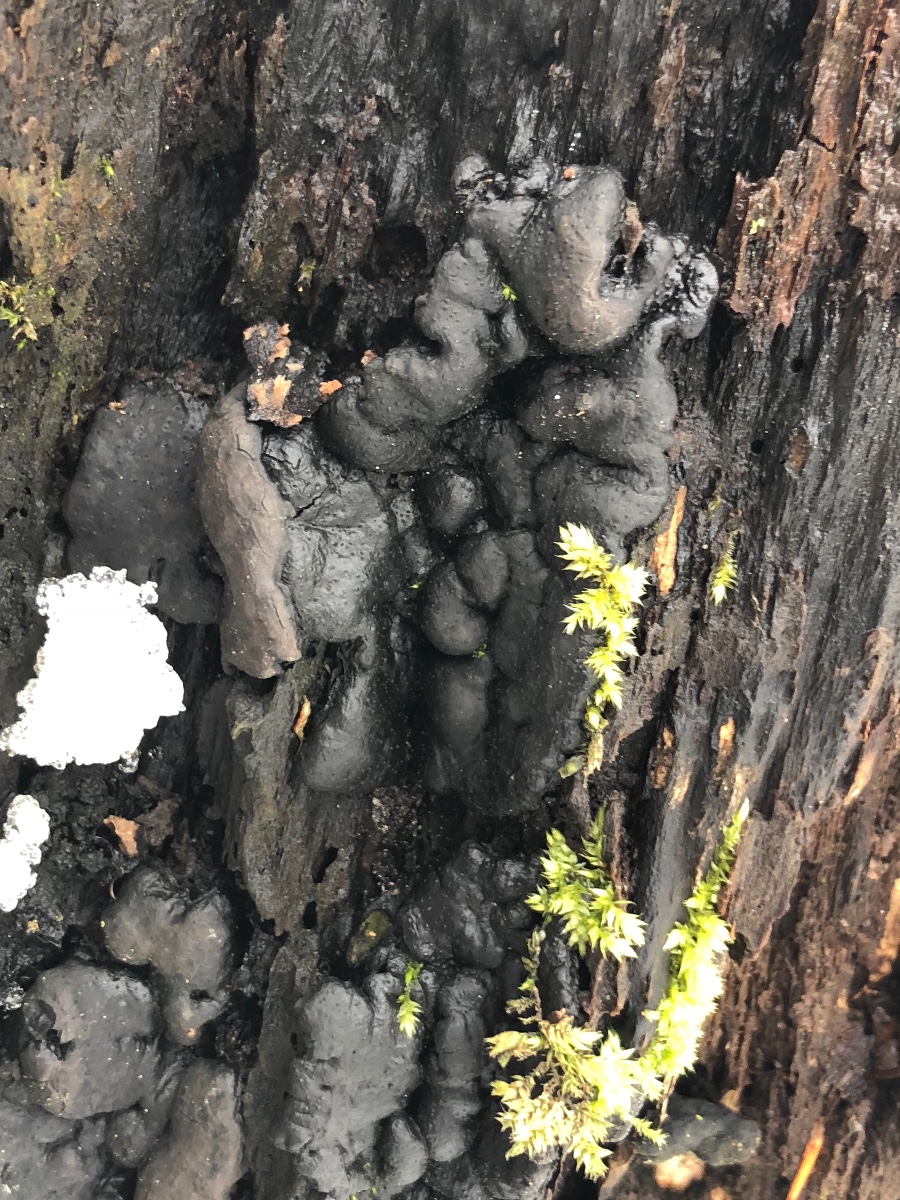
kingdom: Fungi
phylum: Ascomycota
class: Sordariomycetes
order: Xylariales
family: Xylariaceae
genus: Kretzschmaria
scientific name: Kretzschmaria deusta
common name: stor kulsvamp
